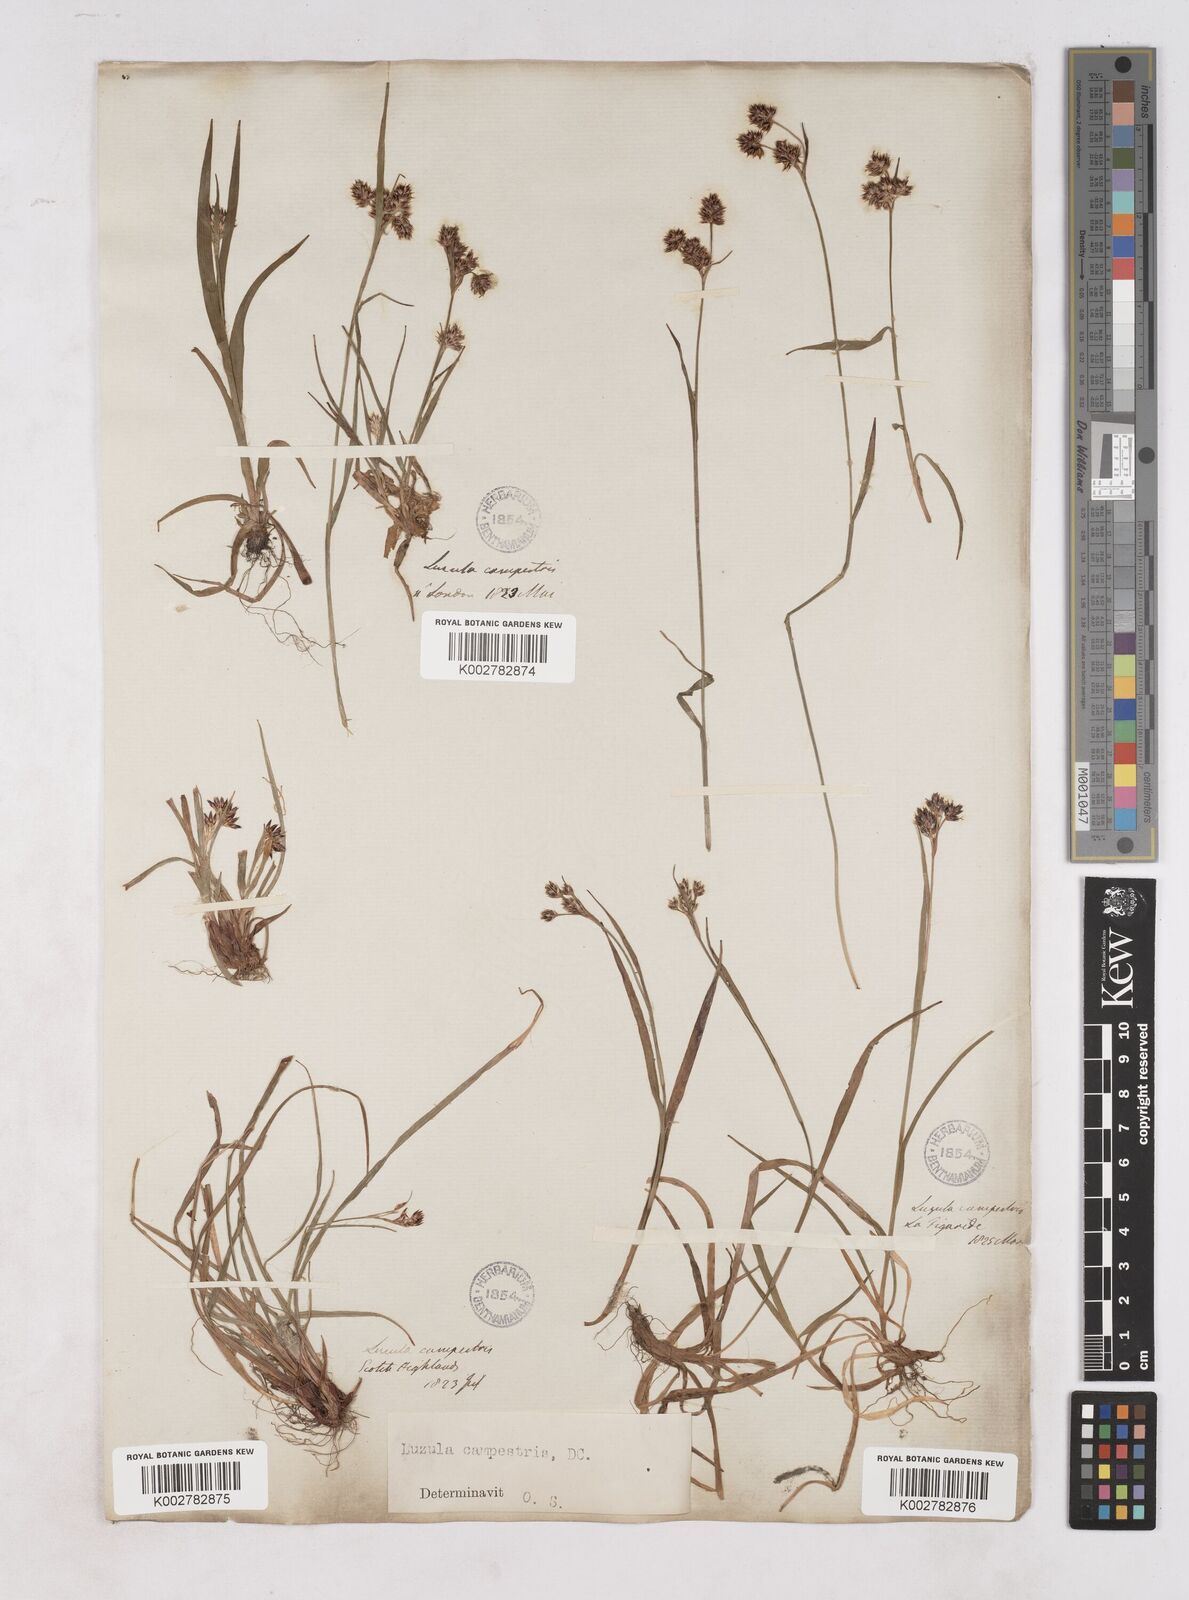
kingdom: Plantae
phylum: Tracheophyta
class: Liliopsida
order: Poales
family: Juncaceae
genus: Luzula
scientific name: Luzula campestris
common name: Field wood-rush
